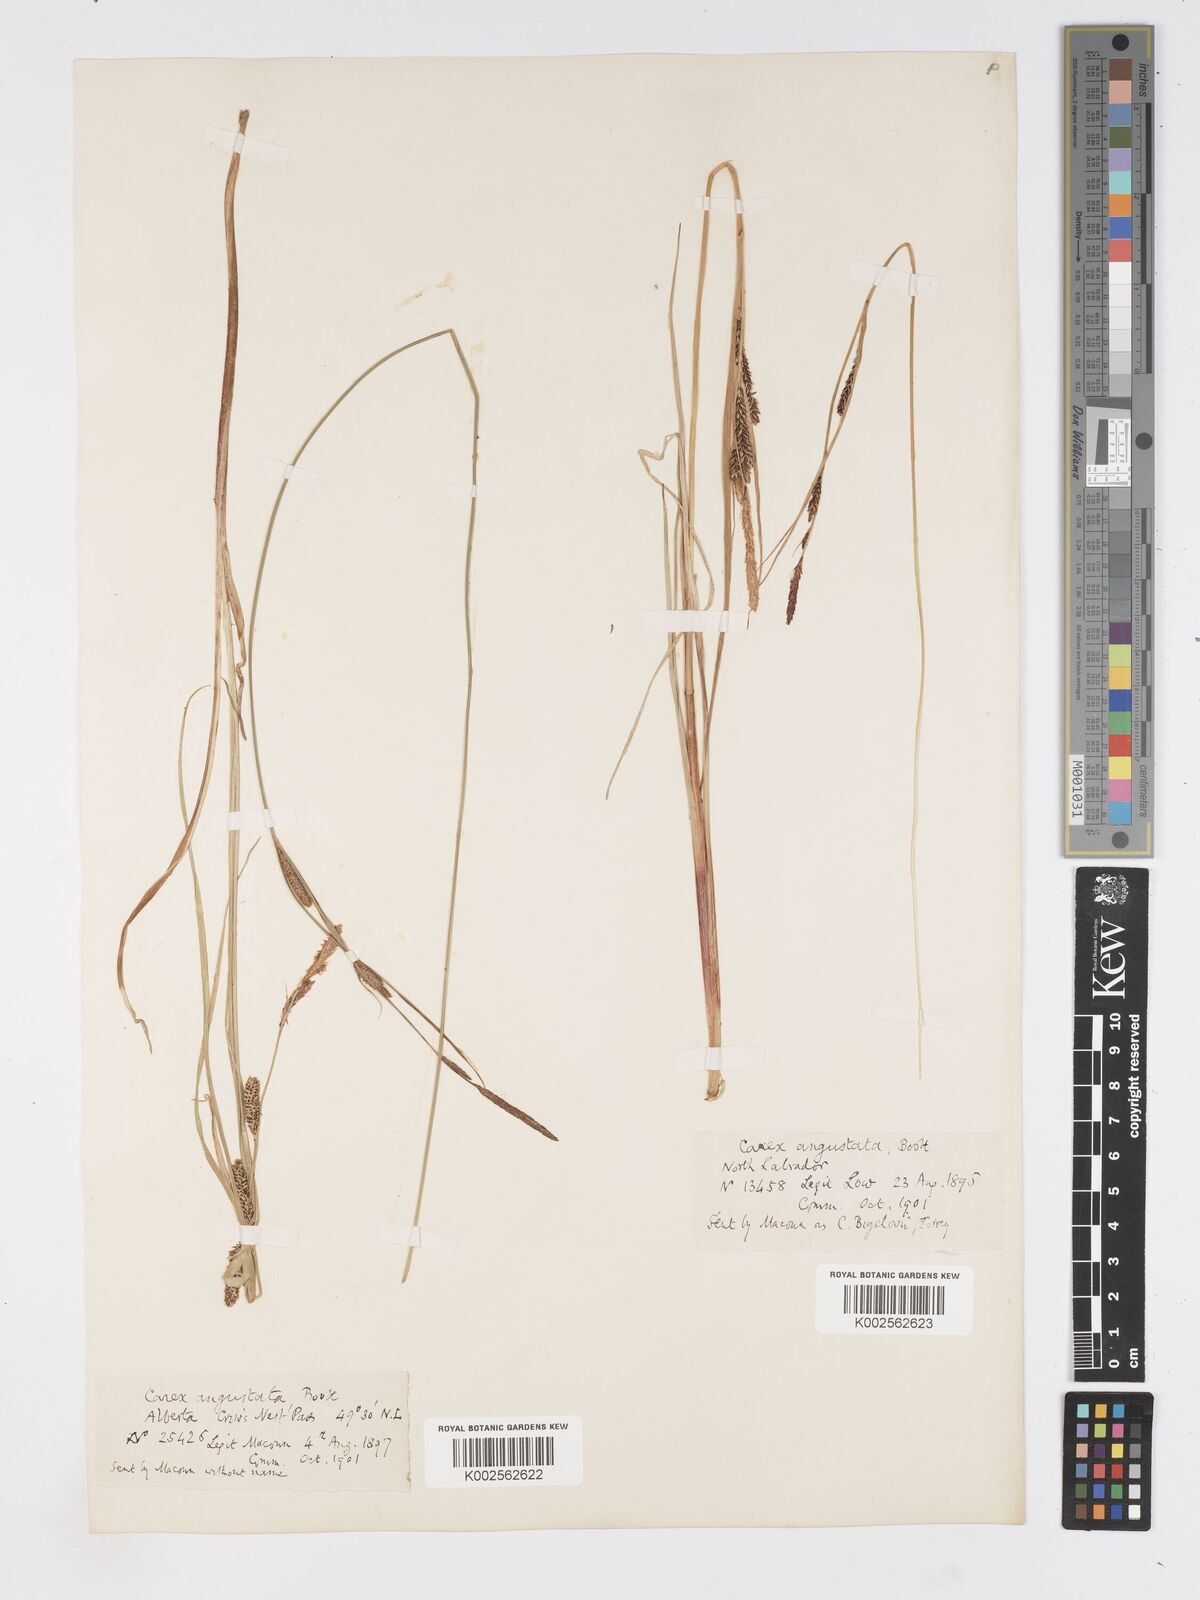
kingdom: Plantae
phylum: Tracheophyta
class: Liliopsida
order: Poales
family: Cyperaceae
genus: Carex
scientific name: Carex stricta
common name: Hummock sedge
